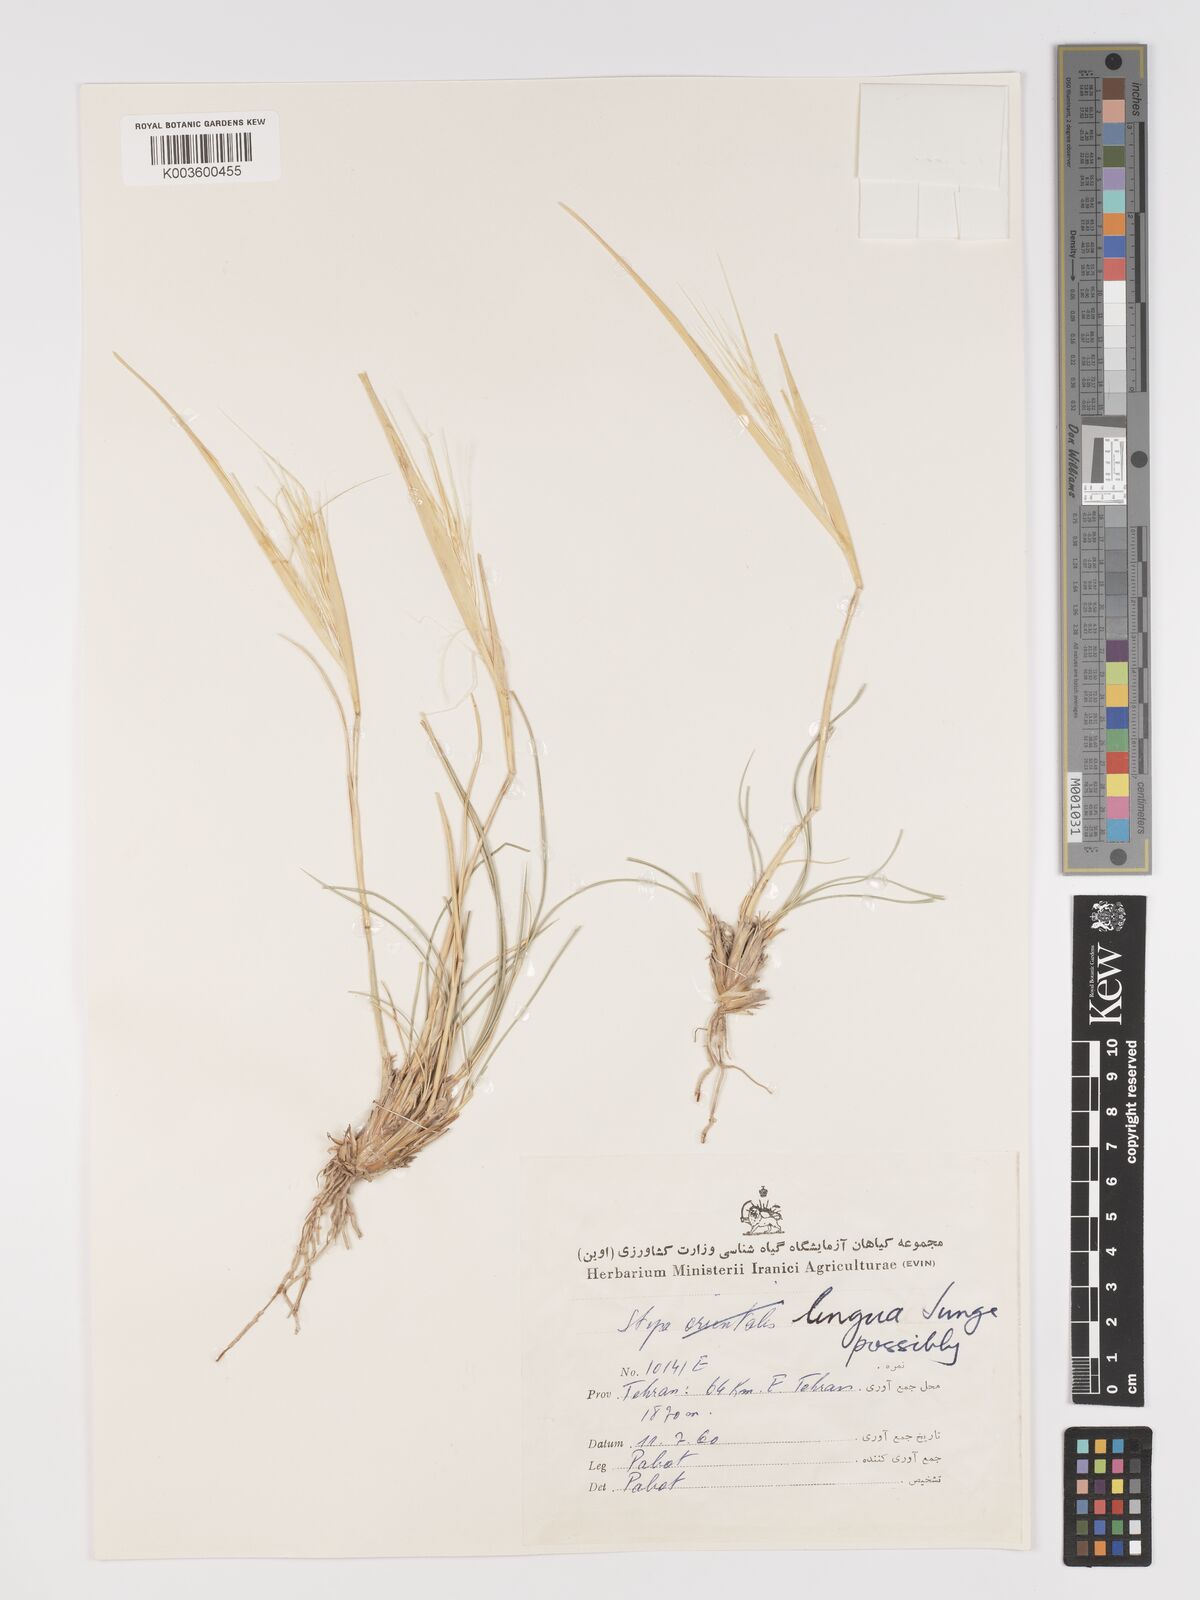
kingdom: Plantae
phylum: Tracheophyta
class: Liliopsida
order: Poales
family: Poaceae
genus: Stipa
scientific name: Stipa lingua
